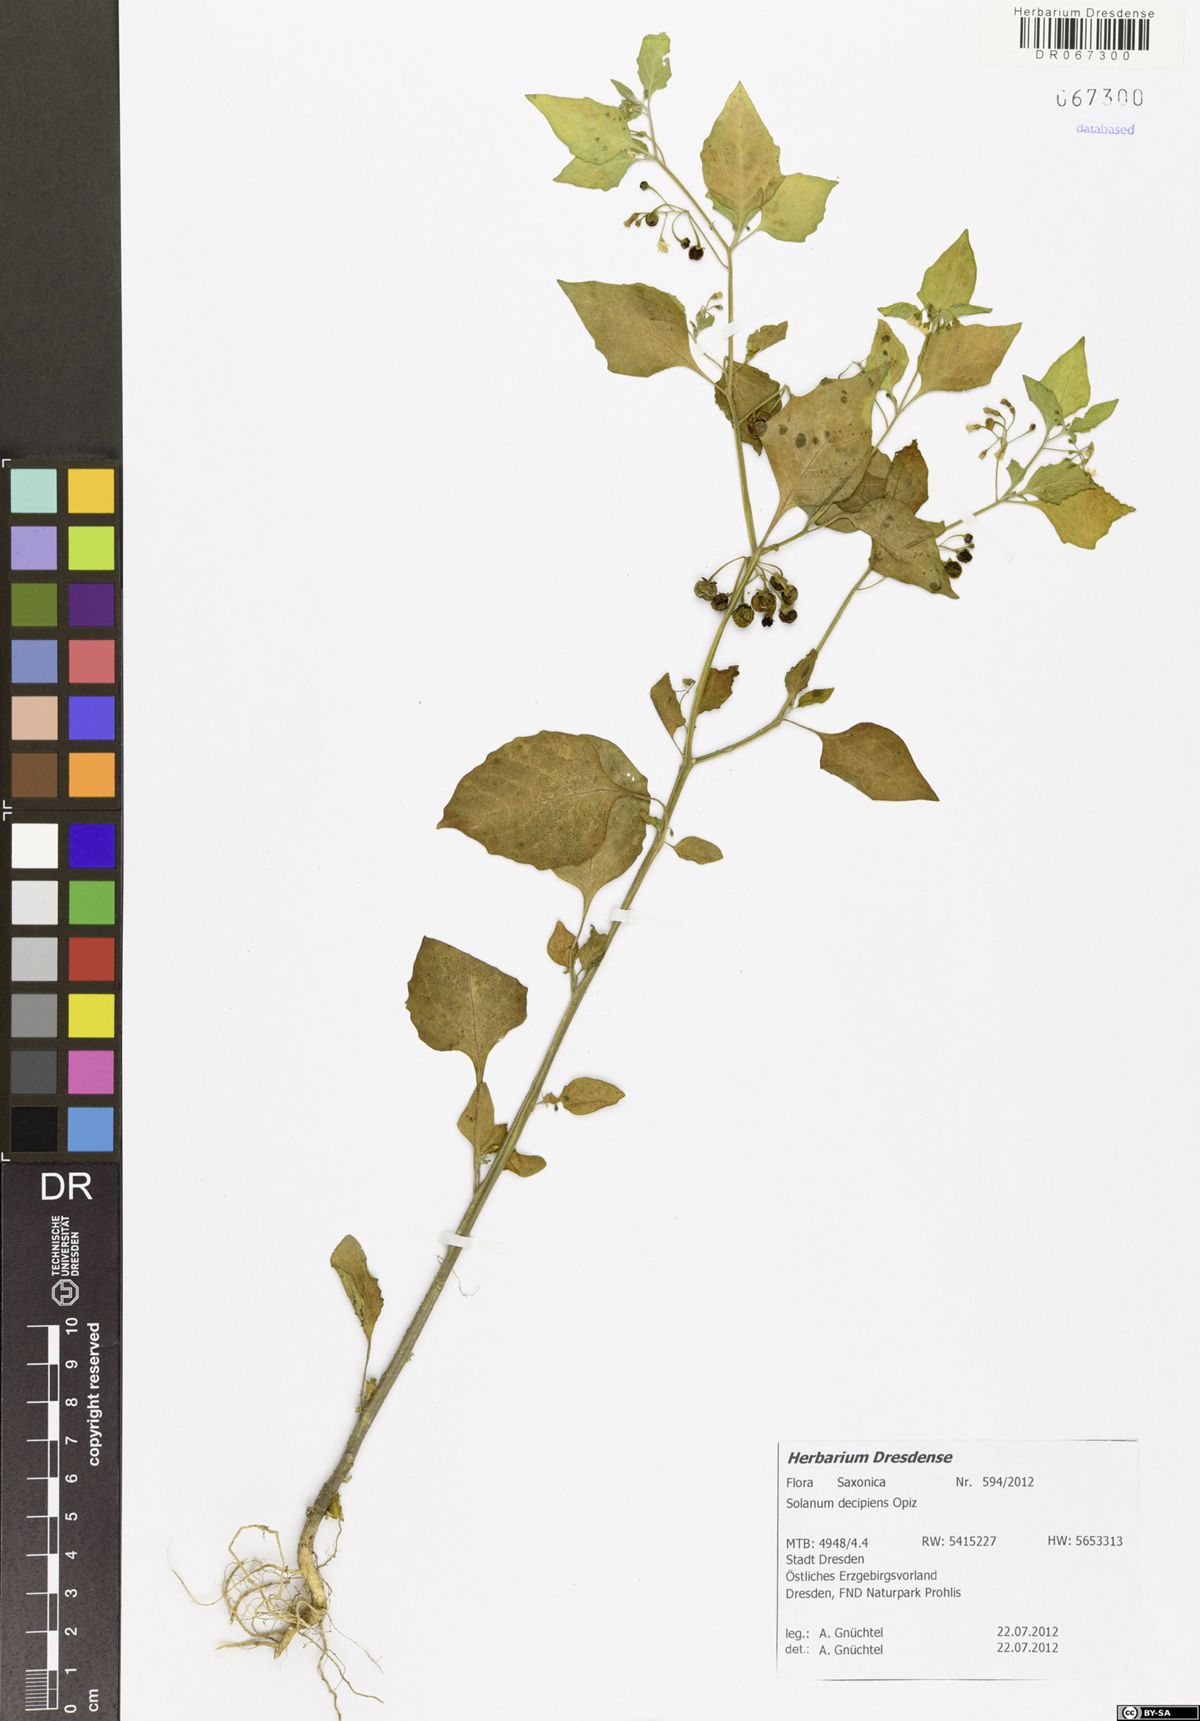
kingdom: Plantae
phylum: Tracheophyta
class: Magnoliopsida
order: Solanales
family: Solanaceae
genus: Solanum
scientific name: Solanum decipiens
